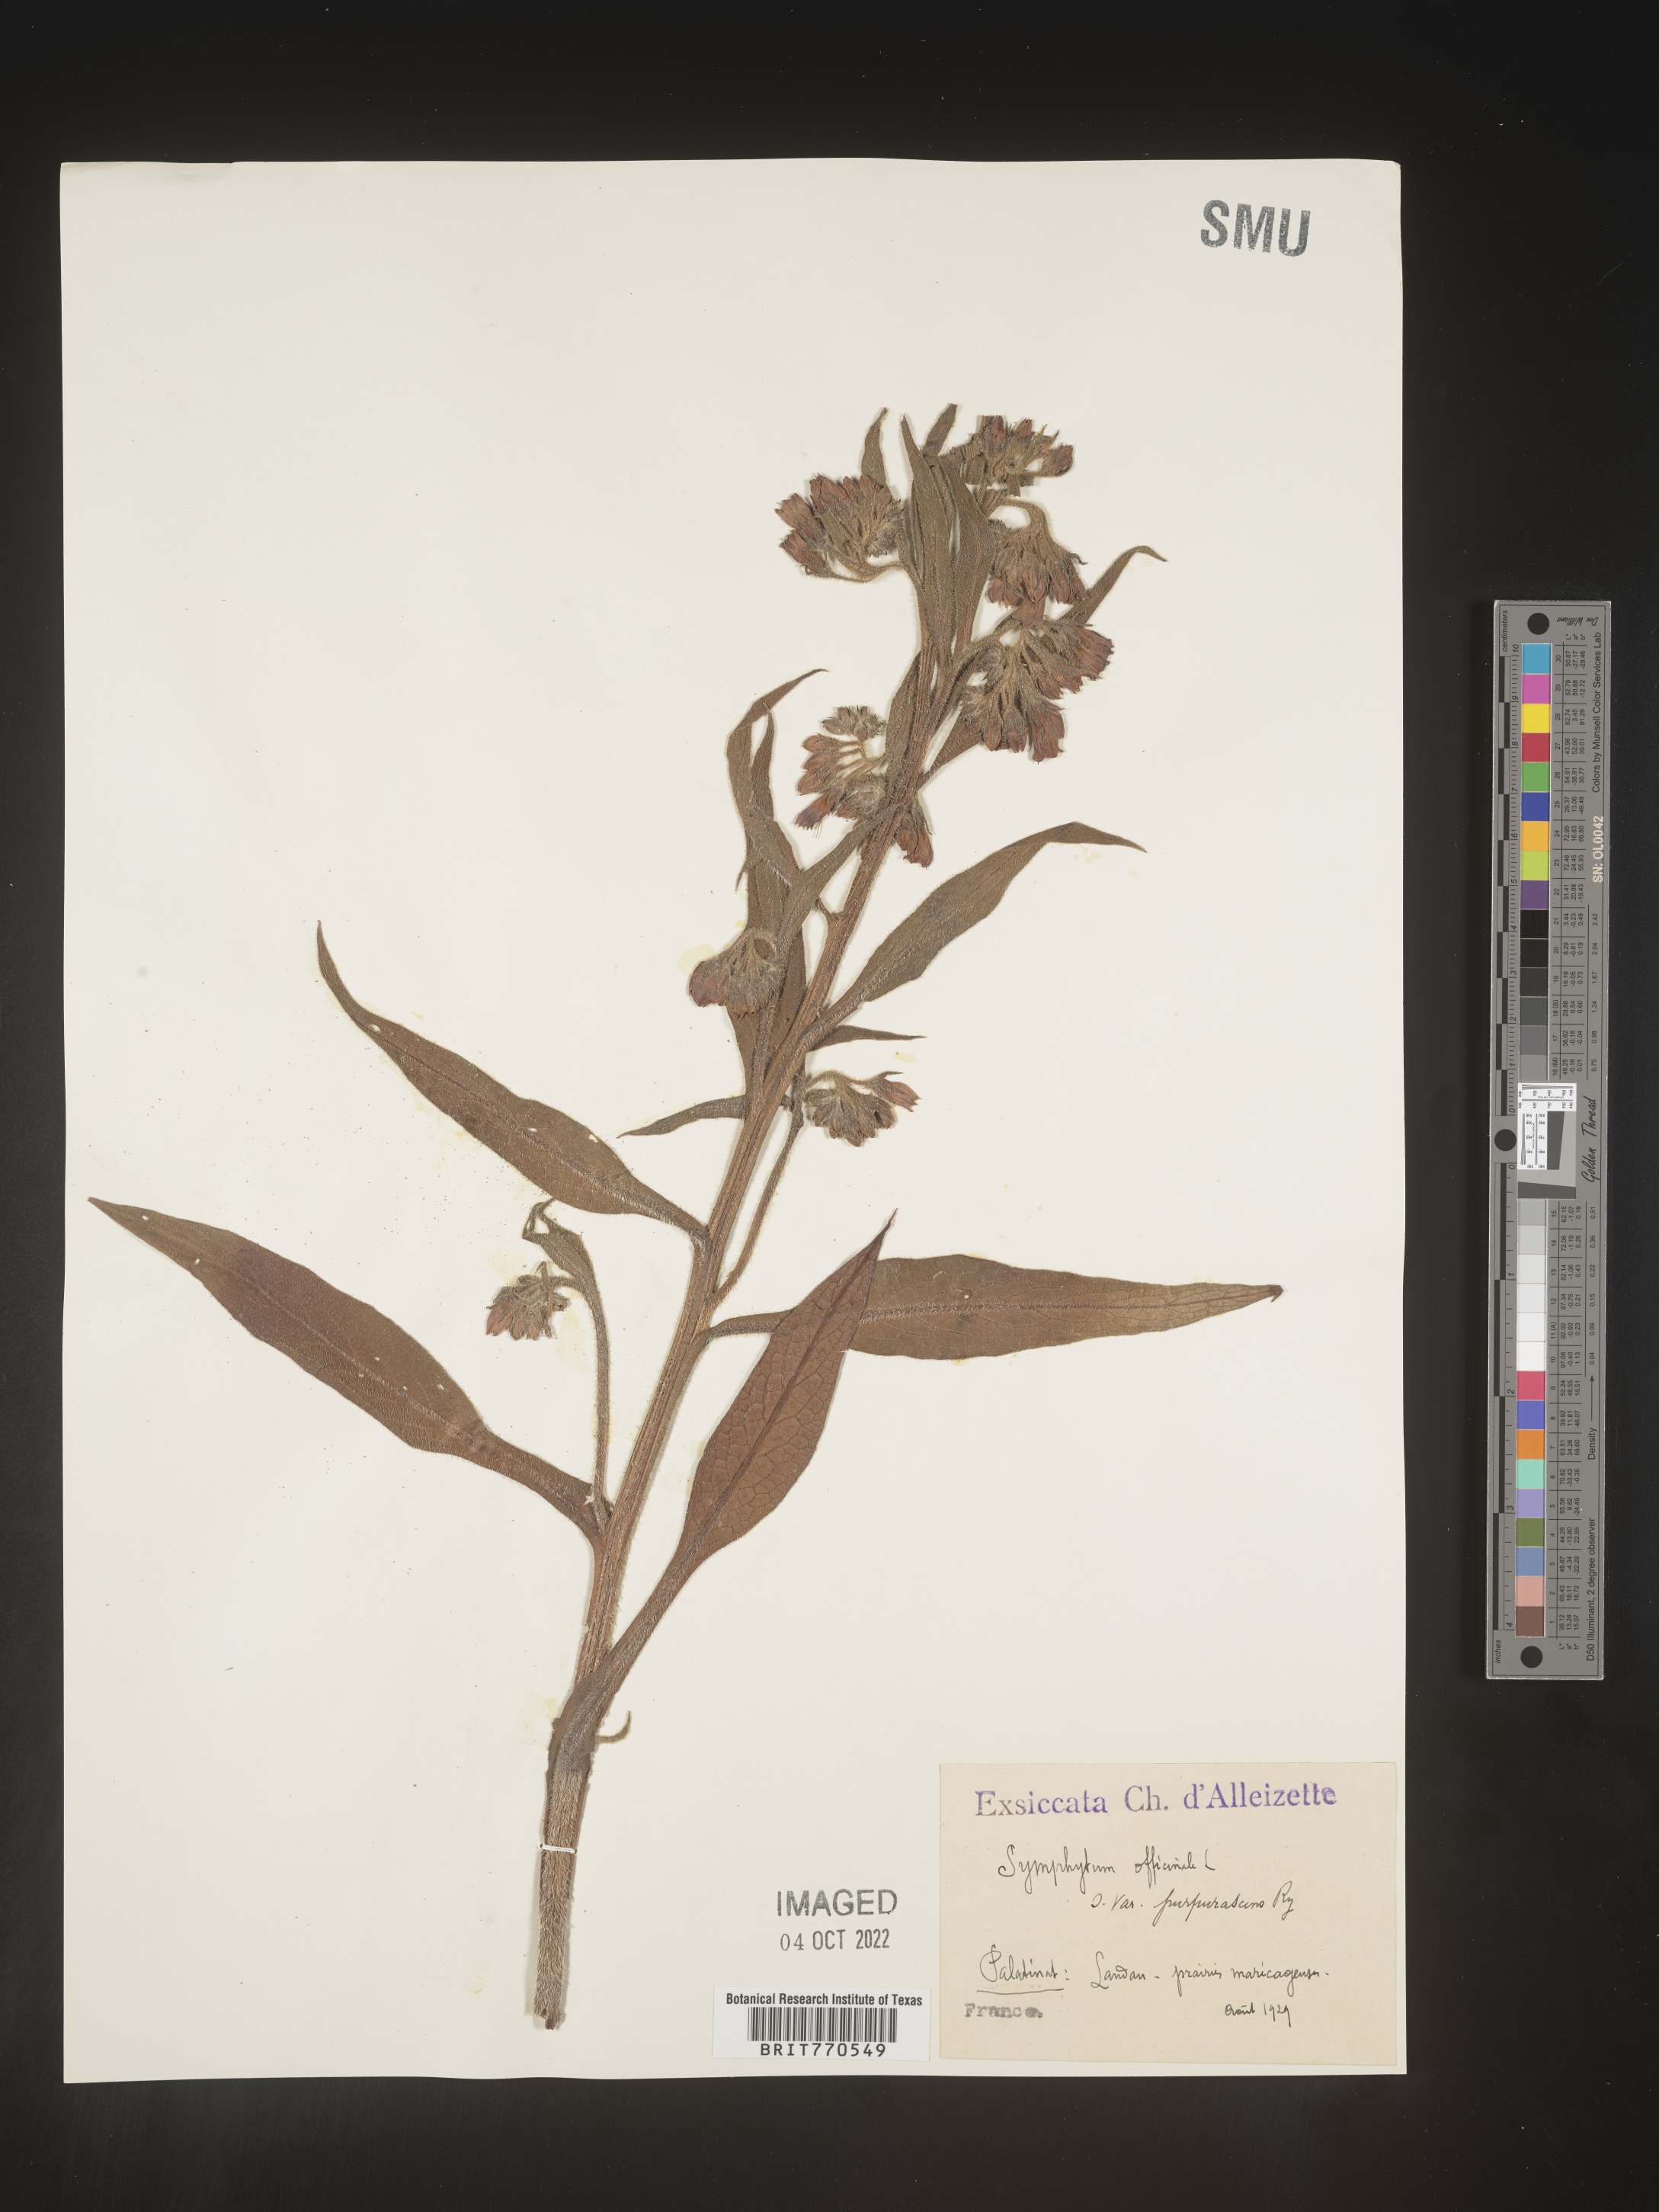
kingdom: Plantae
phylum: Tracheophyta
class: Magnoliopsida
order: Boraginales
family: Boraginaceae
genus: Symphytum
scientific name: Symphytum
